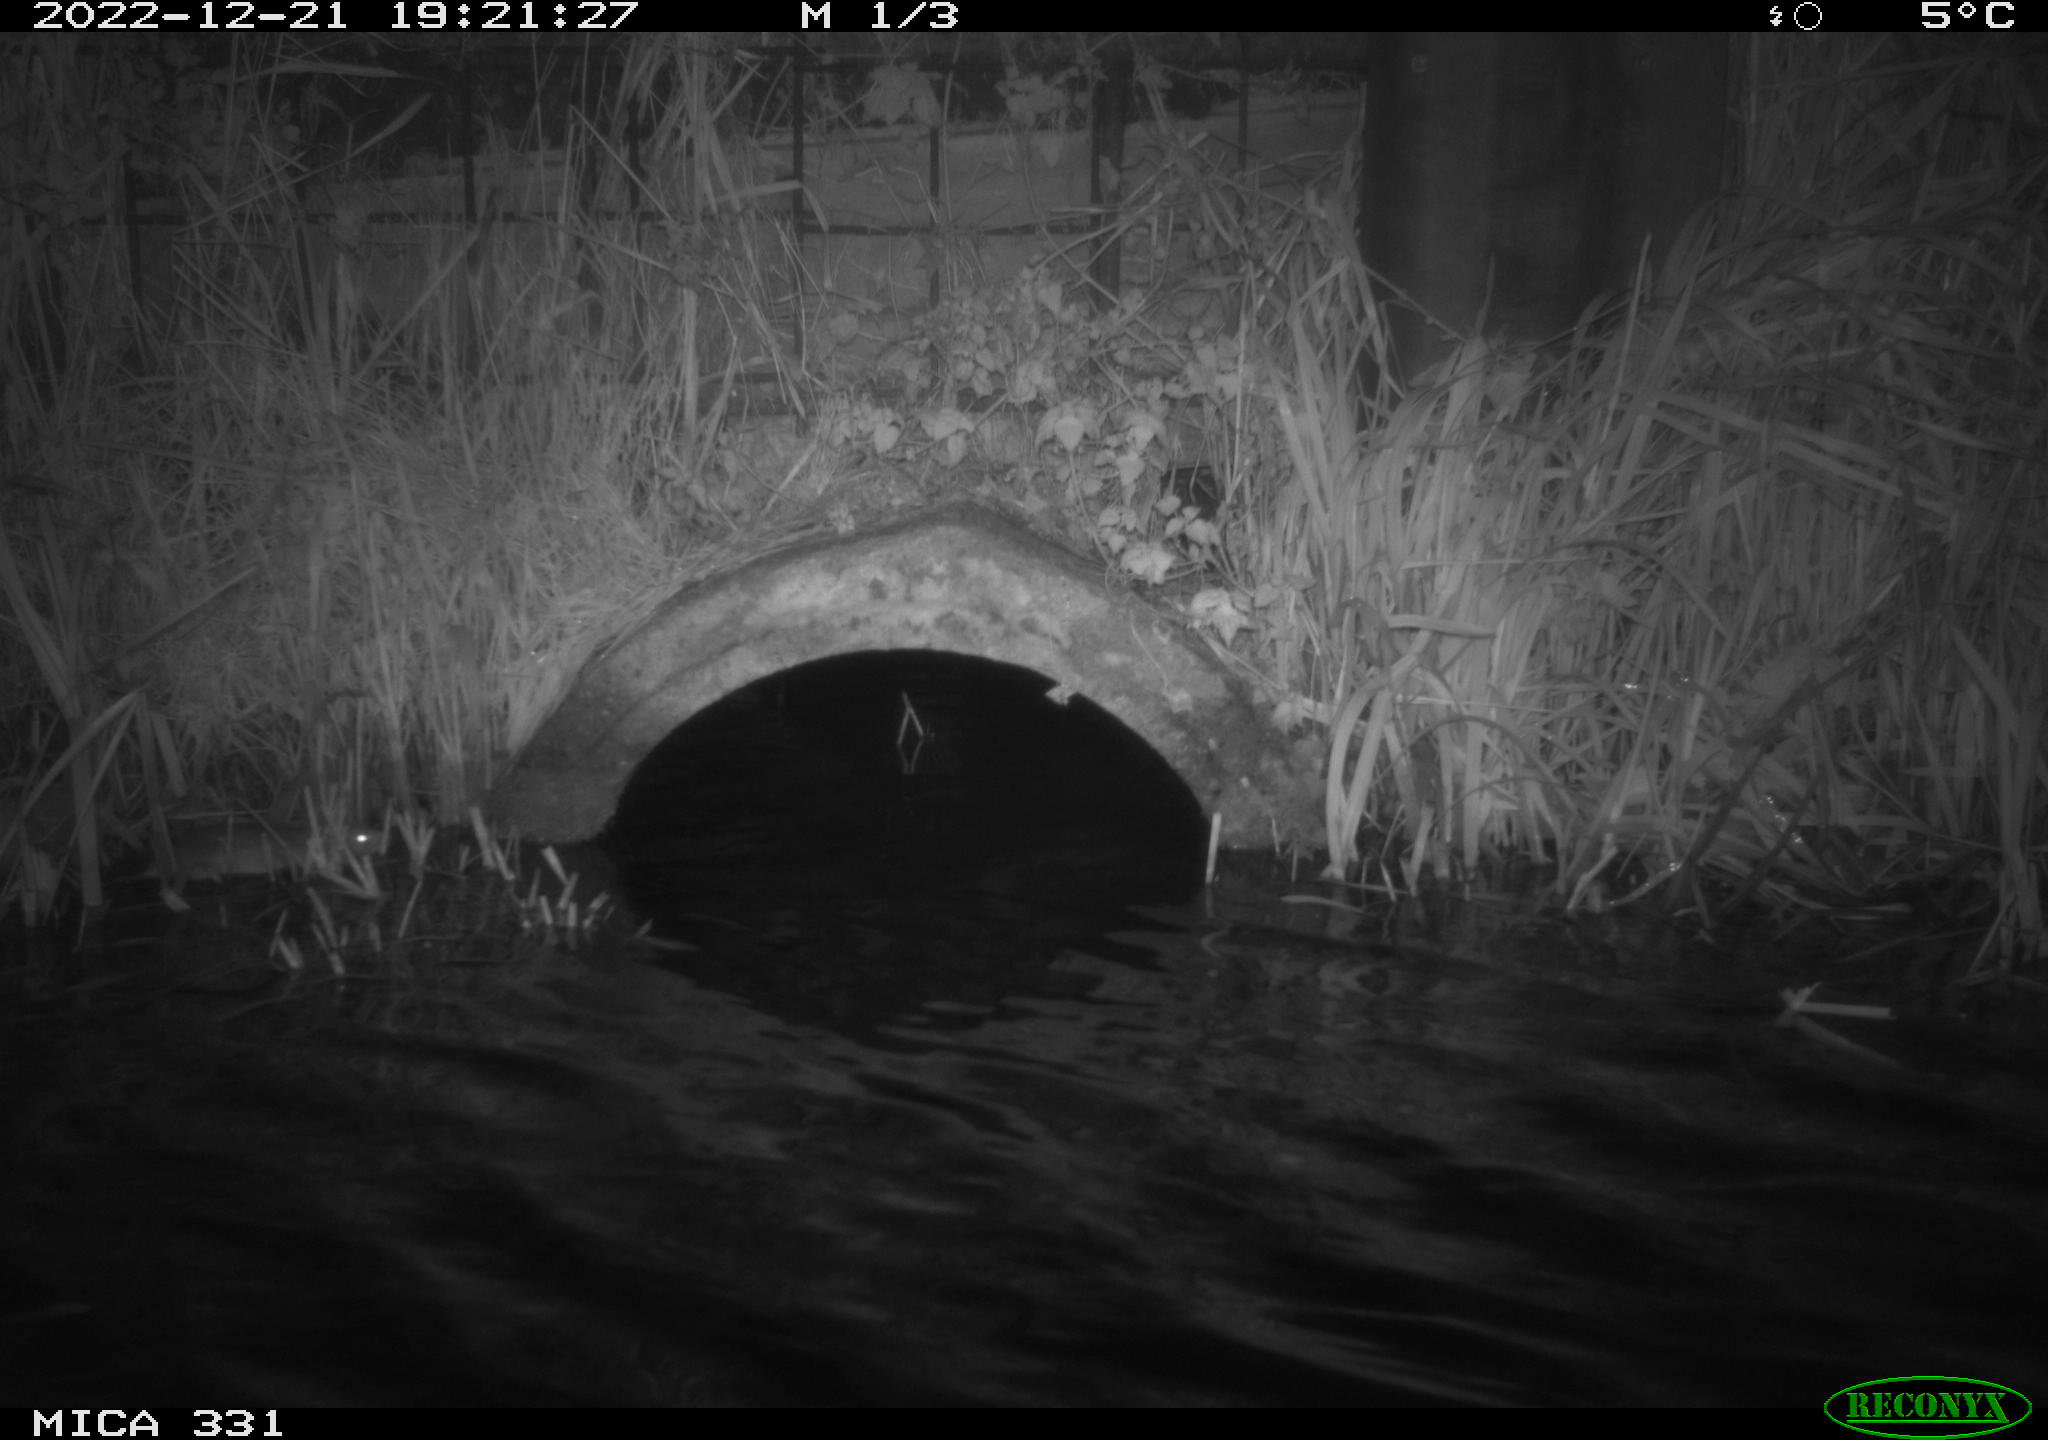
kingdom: Animalia
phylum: Chordata
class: Mammalia
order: Rodentia
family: Muridae
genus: Rattus
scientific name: Rattus norvegicus
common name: Brown rat
